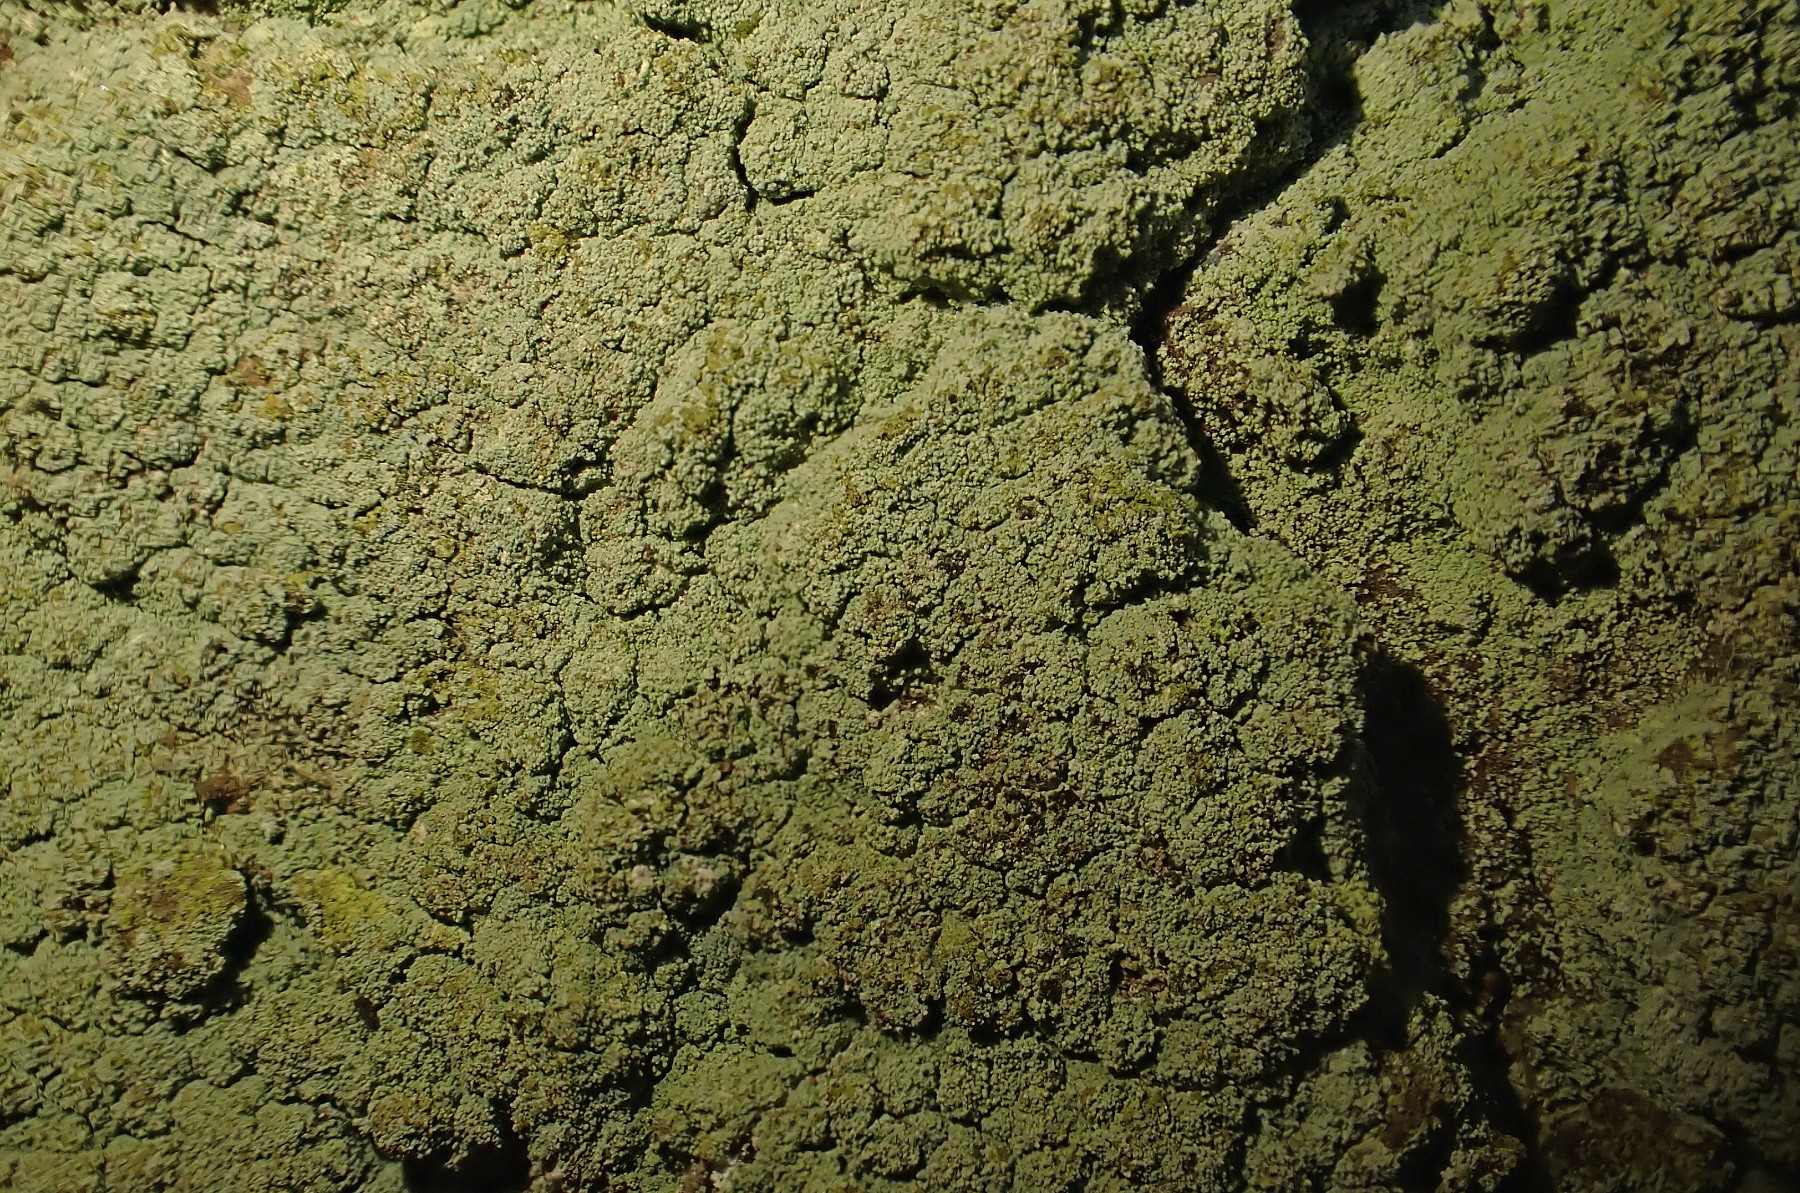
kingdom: Fungi
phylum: Ascomycota
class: Lecanoromycetes
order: Lecanorales
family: Stereocaulaceae
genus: Lepraria
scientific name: Lepraria incana
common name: almindelig støvlav
